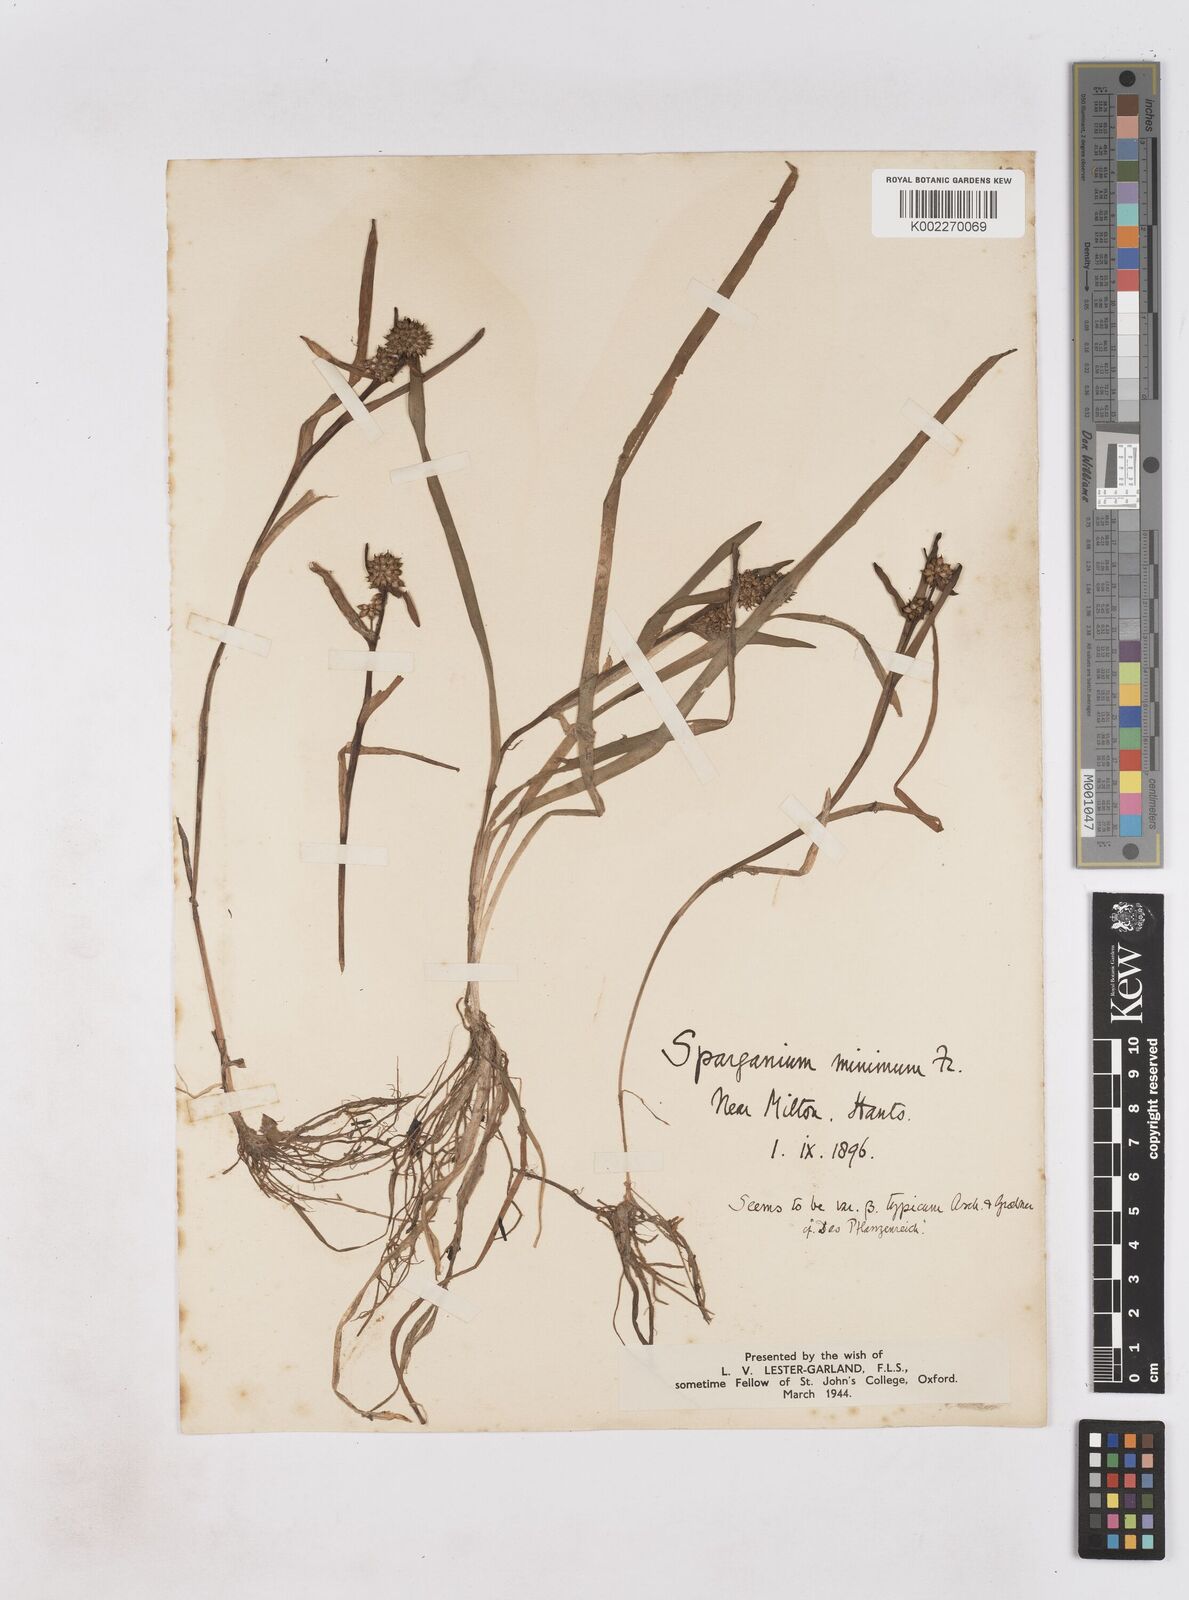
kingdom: Plantae
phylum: Tracheophyta
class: Liliopsida
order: Poales
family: Typhaceae
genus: Sparganium
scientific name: Sparganium natans
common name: Least bur-reed
